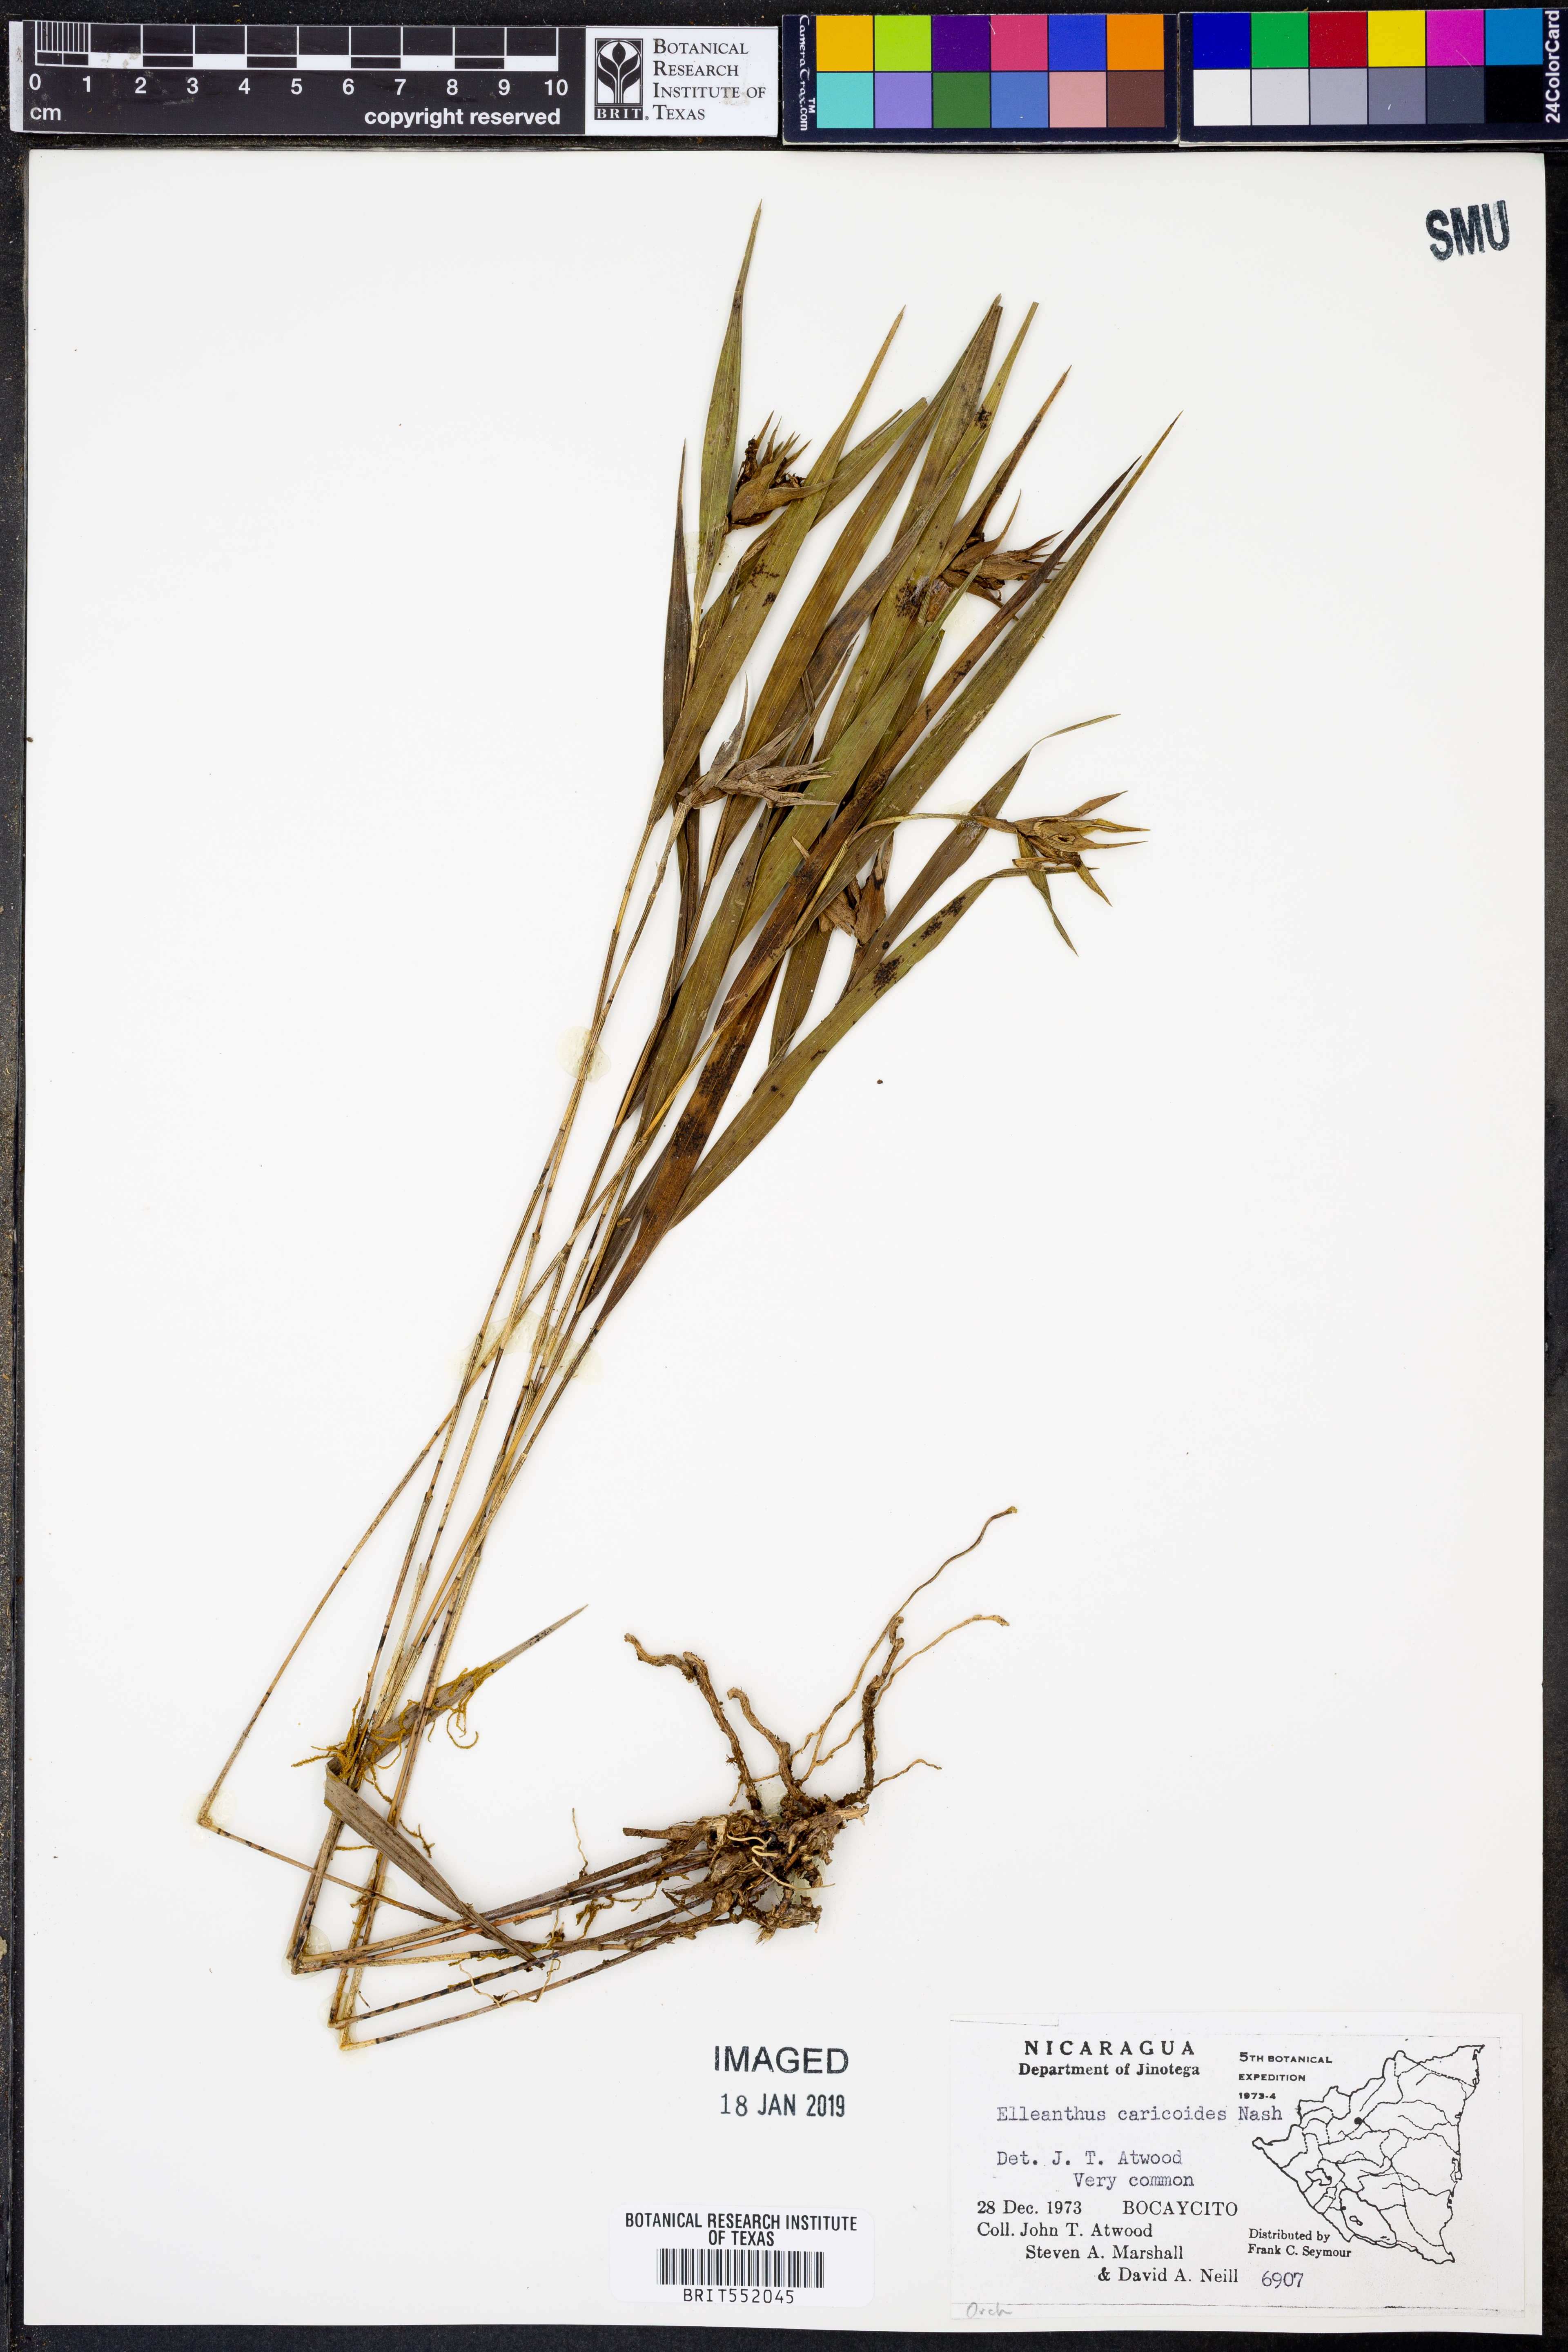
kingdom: Plantae
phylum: Tracheophyta
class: Liliopsida
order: Asparagales
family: Orchidaceae
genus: Elleanthus
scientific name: Elleanthus caricoides
